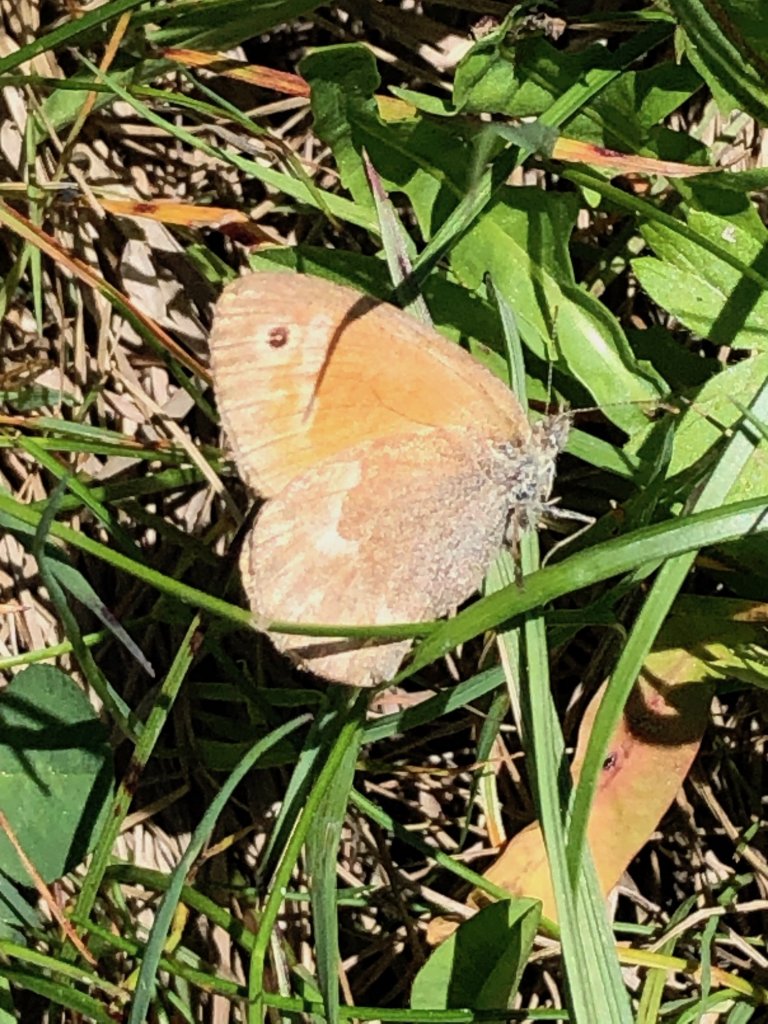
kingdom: Animalia
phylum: Arthropoda
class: Insecta
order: Lepidoptera
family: Nymphalidae
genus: Coenonympha
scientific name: Coenonympha tullia
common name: Large Heath
